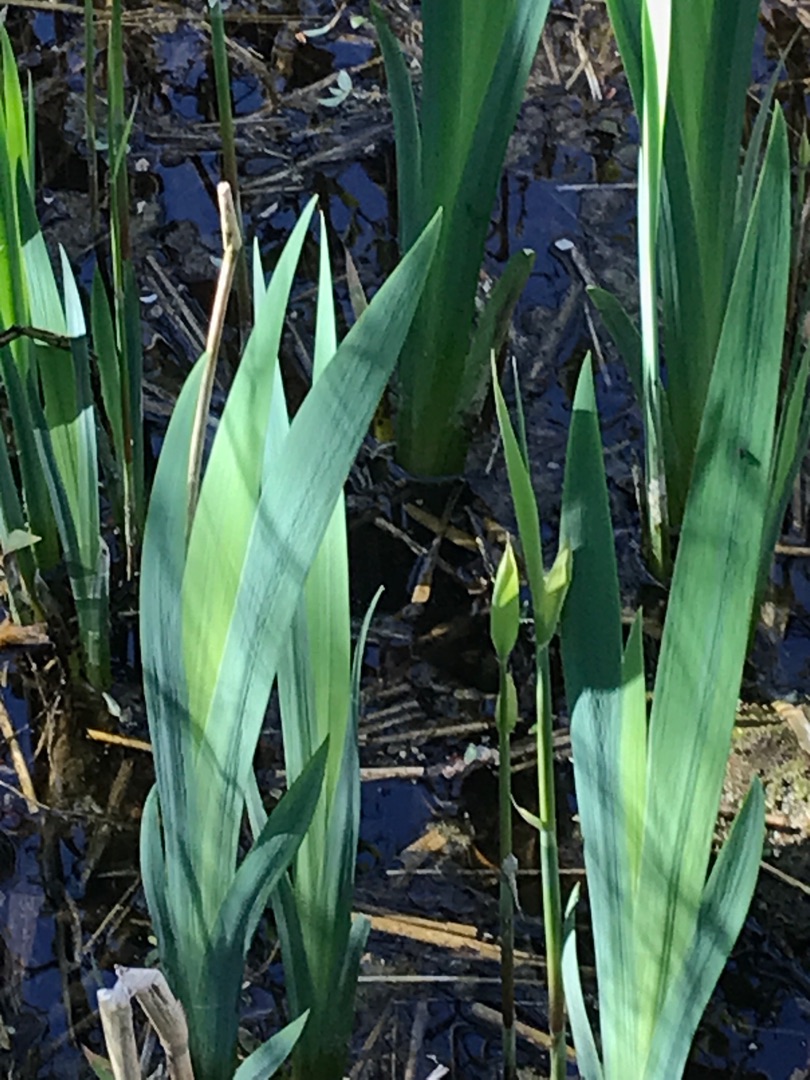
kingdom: Plantae
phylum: Tracheophyta
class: Liliopsida
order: Asparagales
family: Iridaceae
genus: Iris
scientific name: Iris pseudacorus
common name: Gul iris
